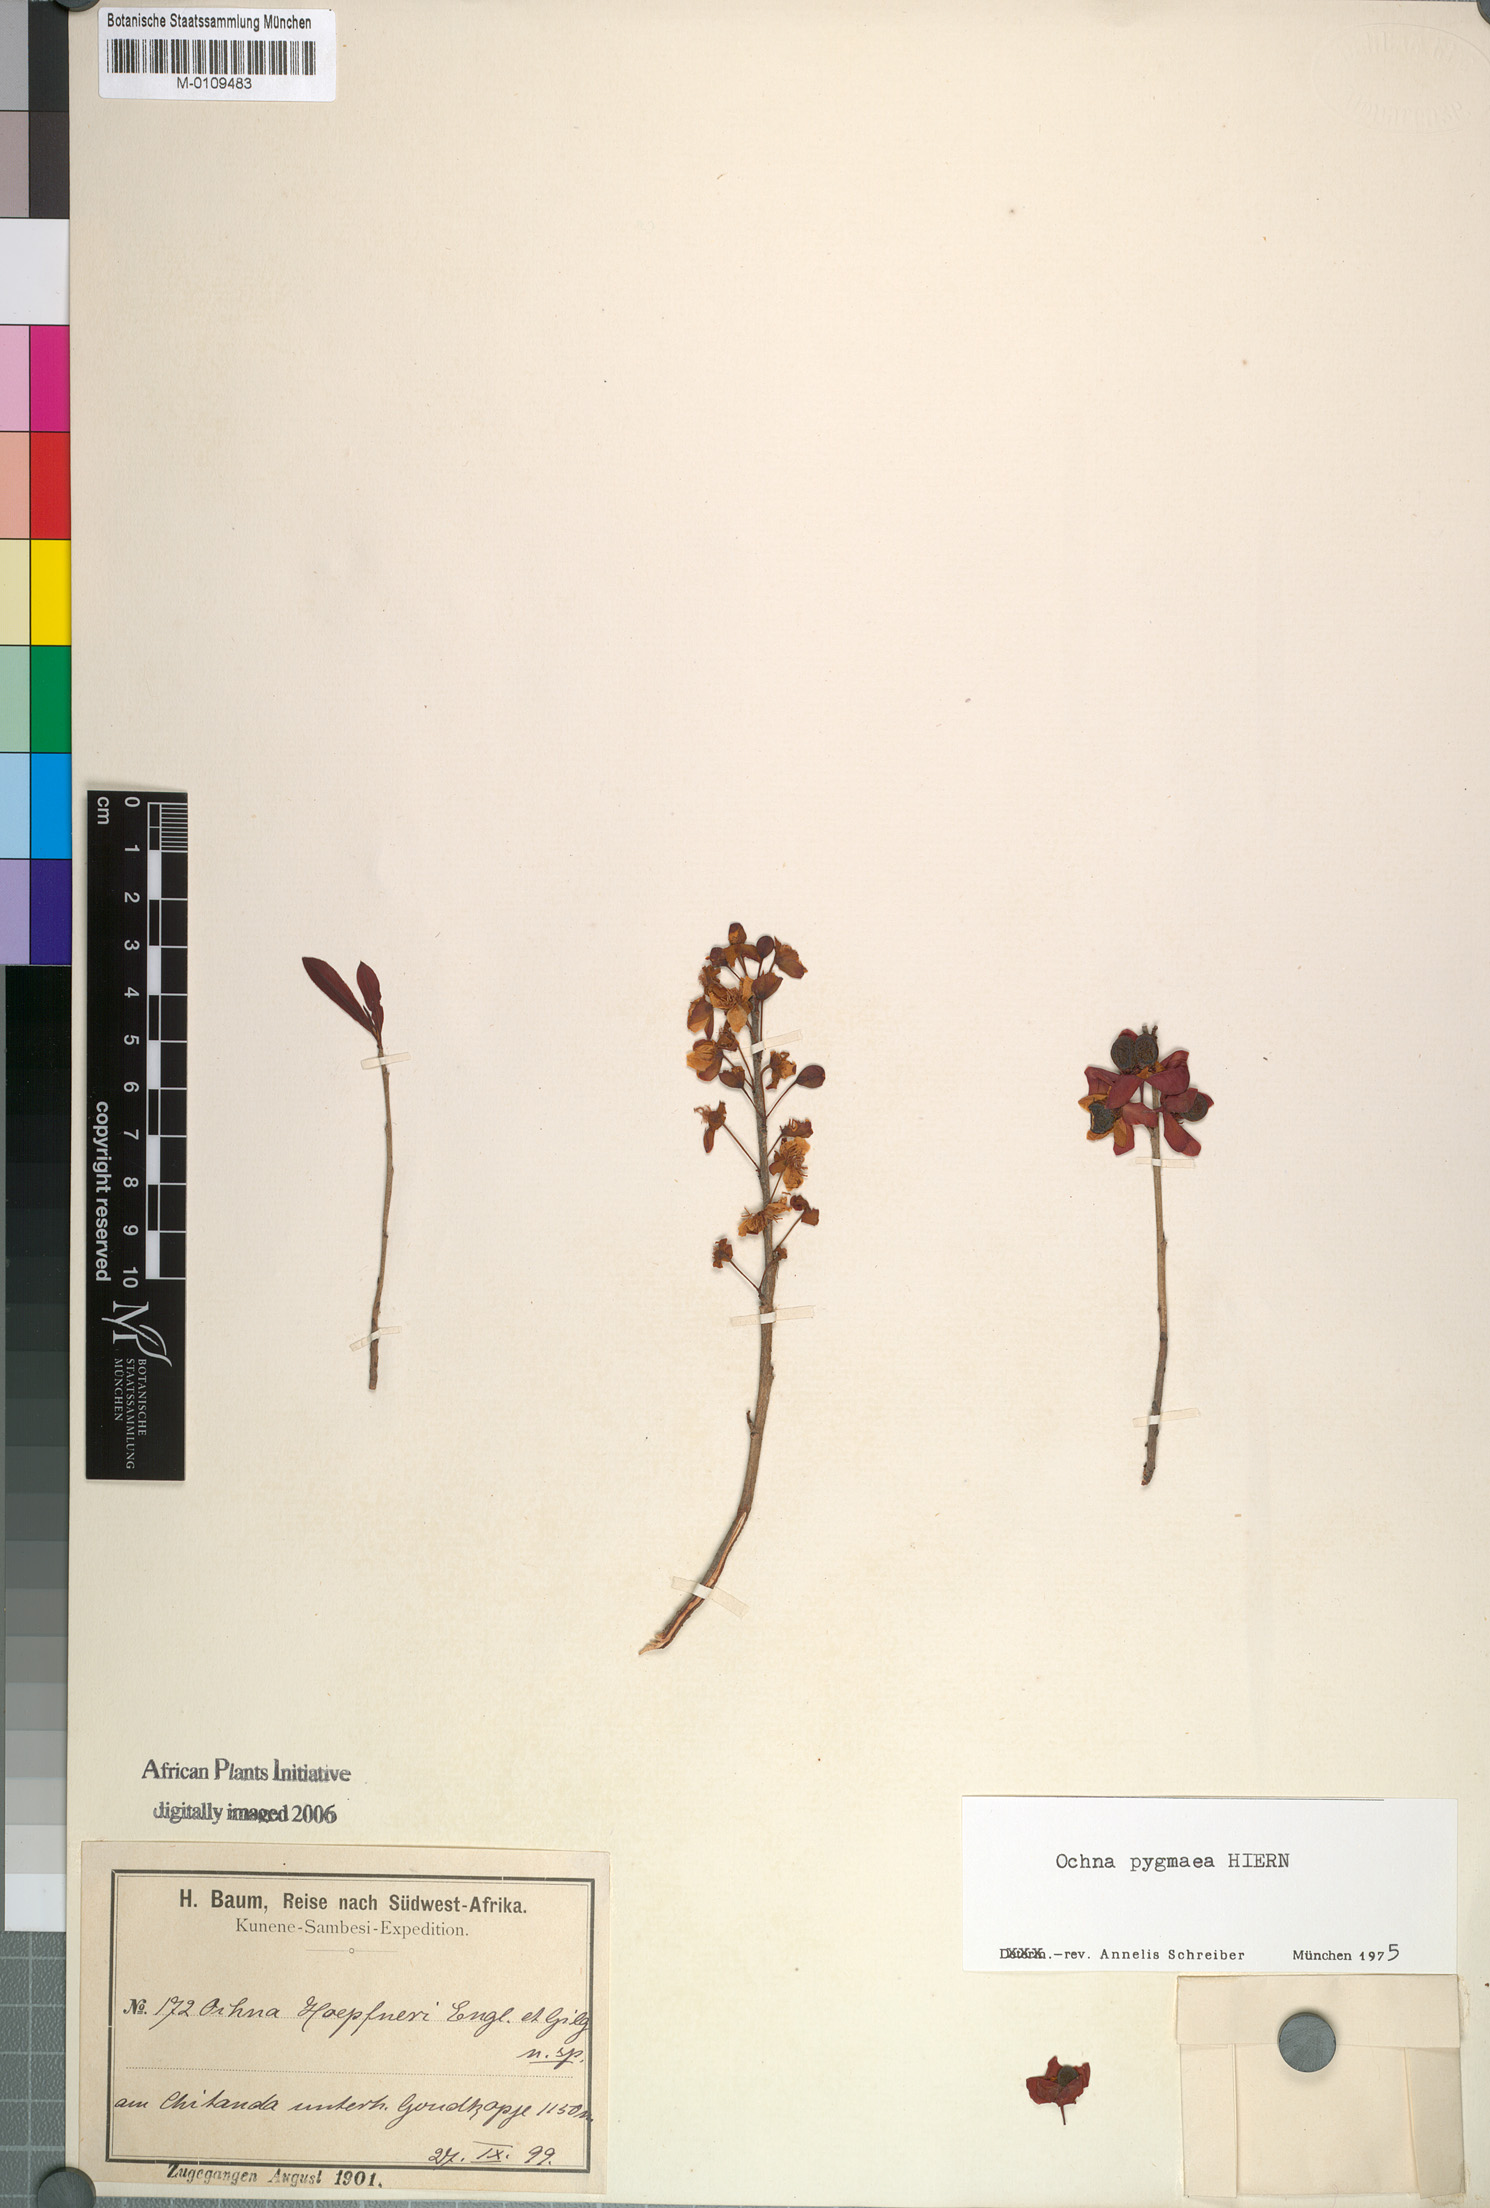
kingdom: Plantae
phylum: Tracheophyta
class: Magnoliopsida
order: Malpighiales
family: Ochnaceae
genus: Ochna
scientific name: Ochna pygmaea
